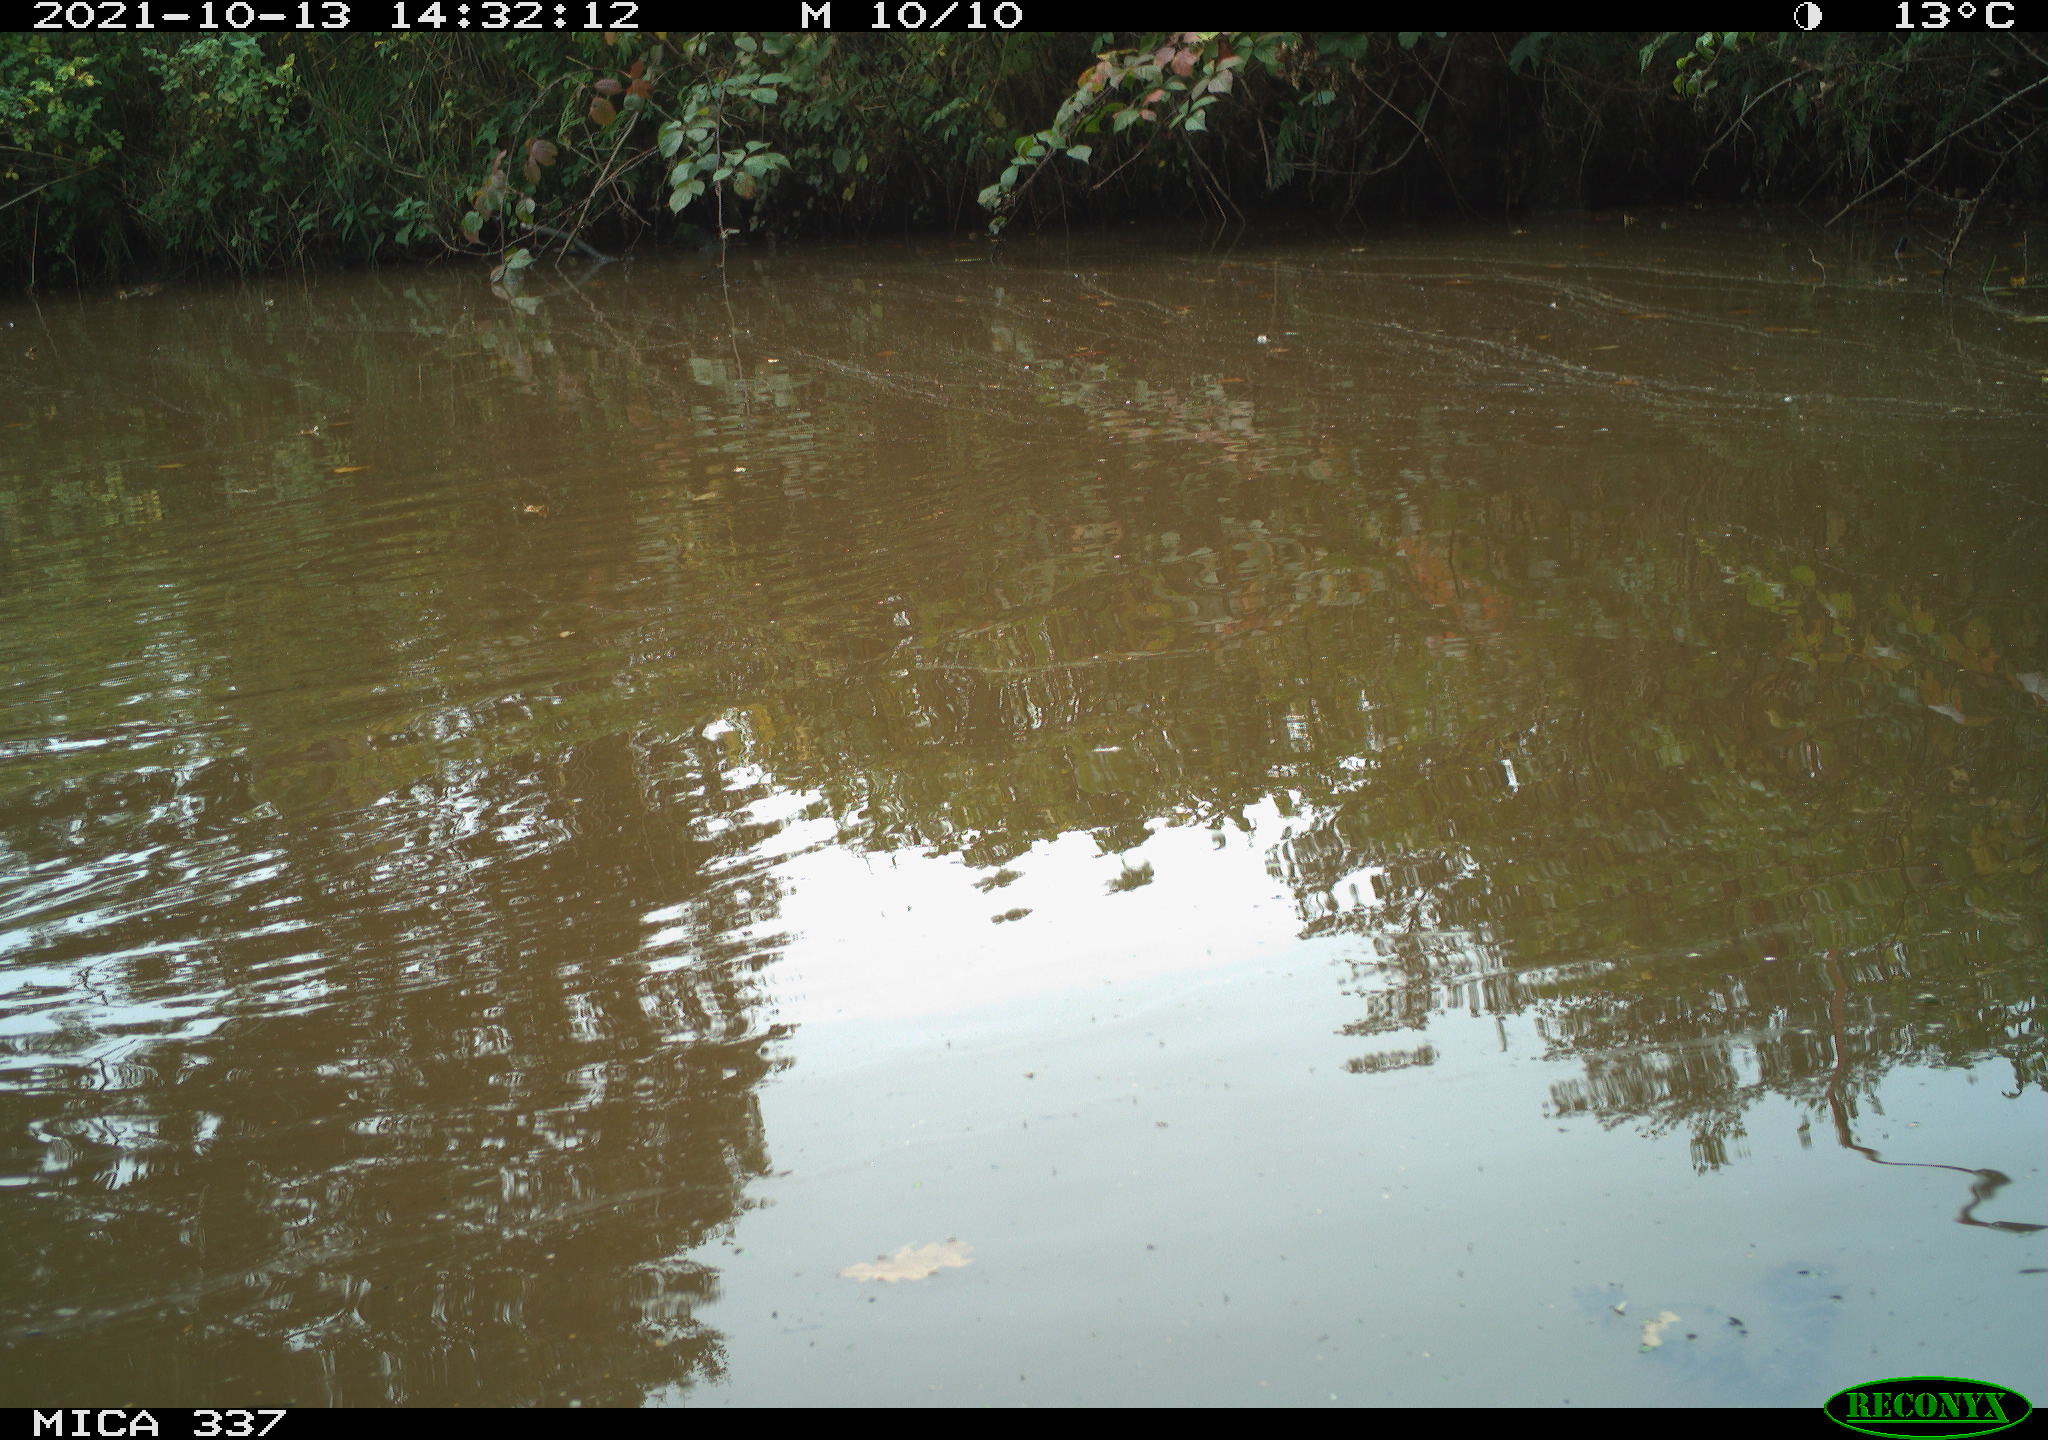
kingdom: Animalia
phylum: Chordata
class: Aves
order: Anseriformes
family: Anatidae
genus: Anas
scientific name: Anas platyrhynchos
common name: Mallard
